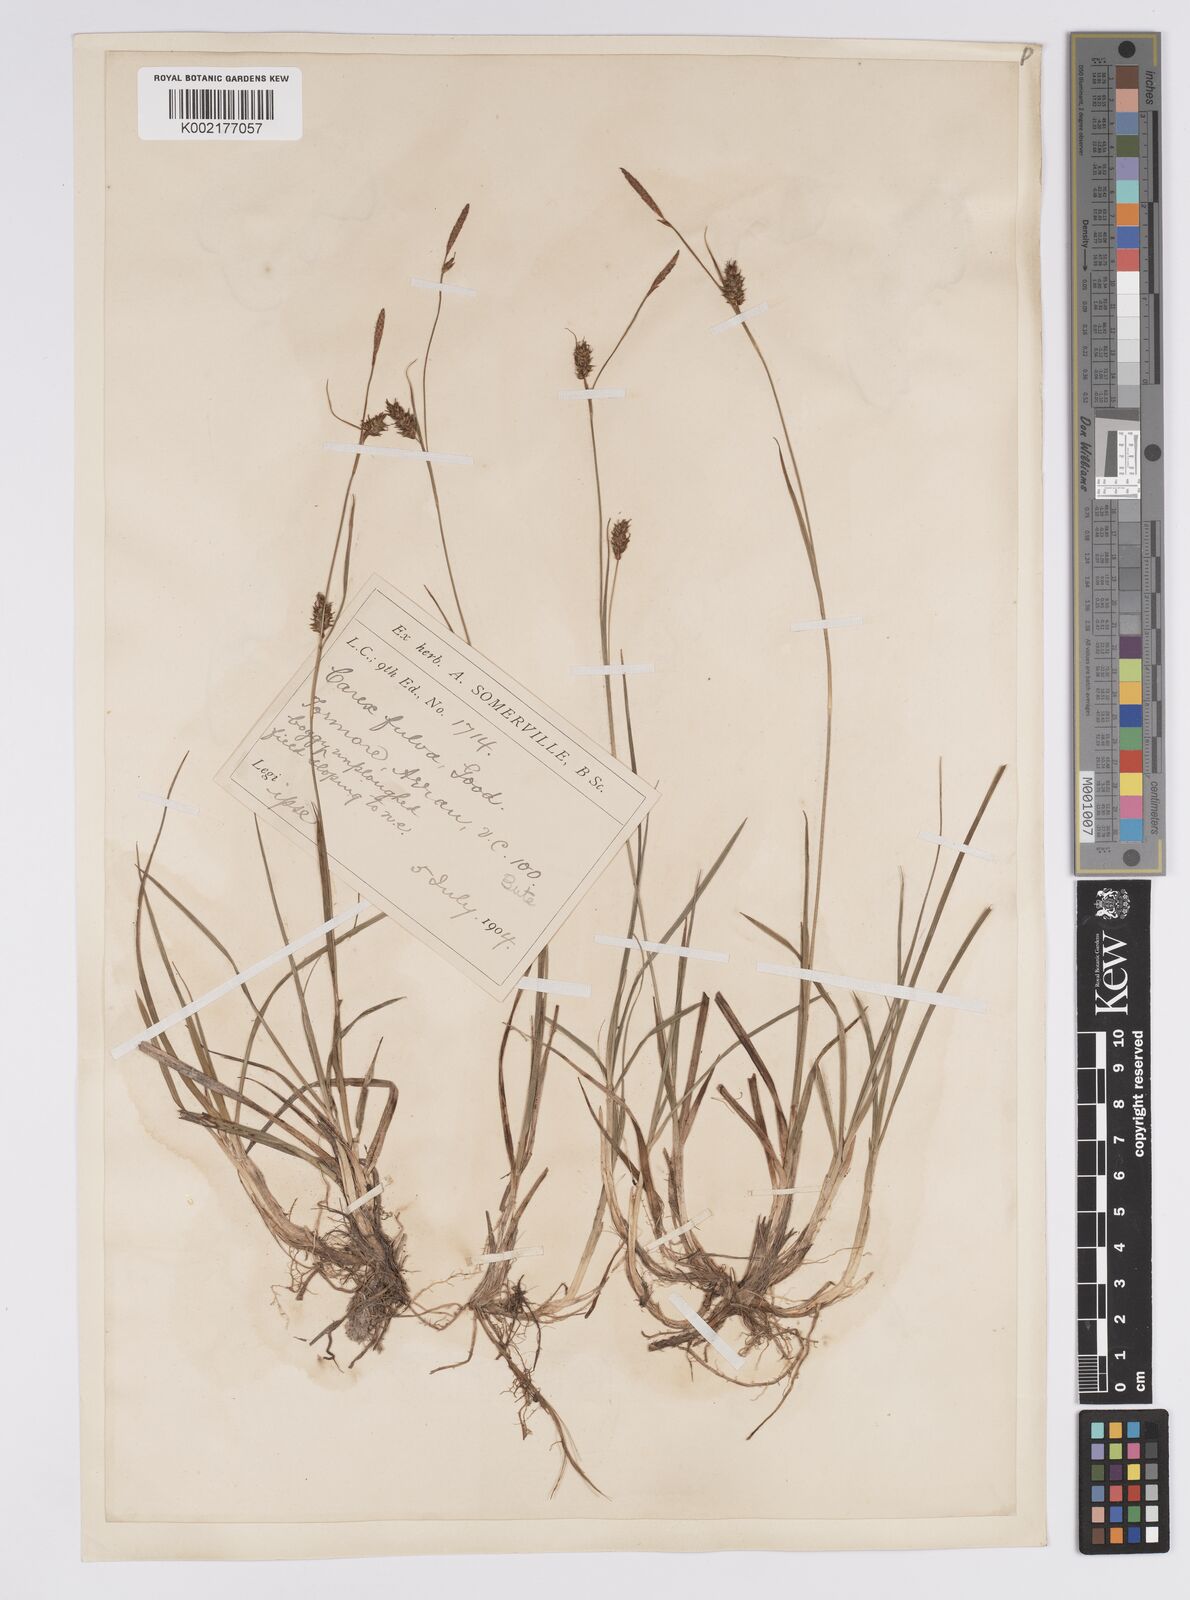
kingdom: Plantae
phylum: Tracheophyta
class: Liliopsida
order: Poales
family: Cyperaceae
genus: Carex
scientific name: Carex hostiana
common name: Tawny sedge
